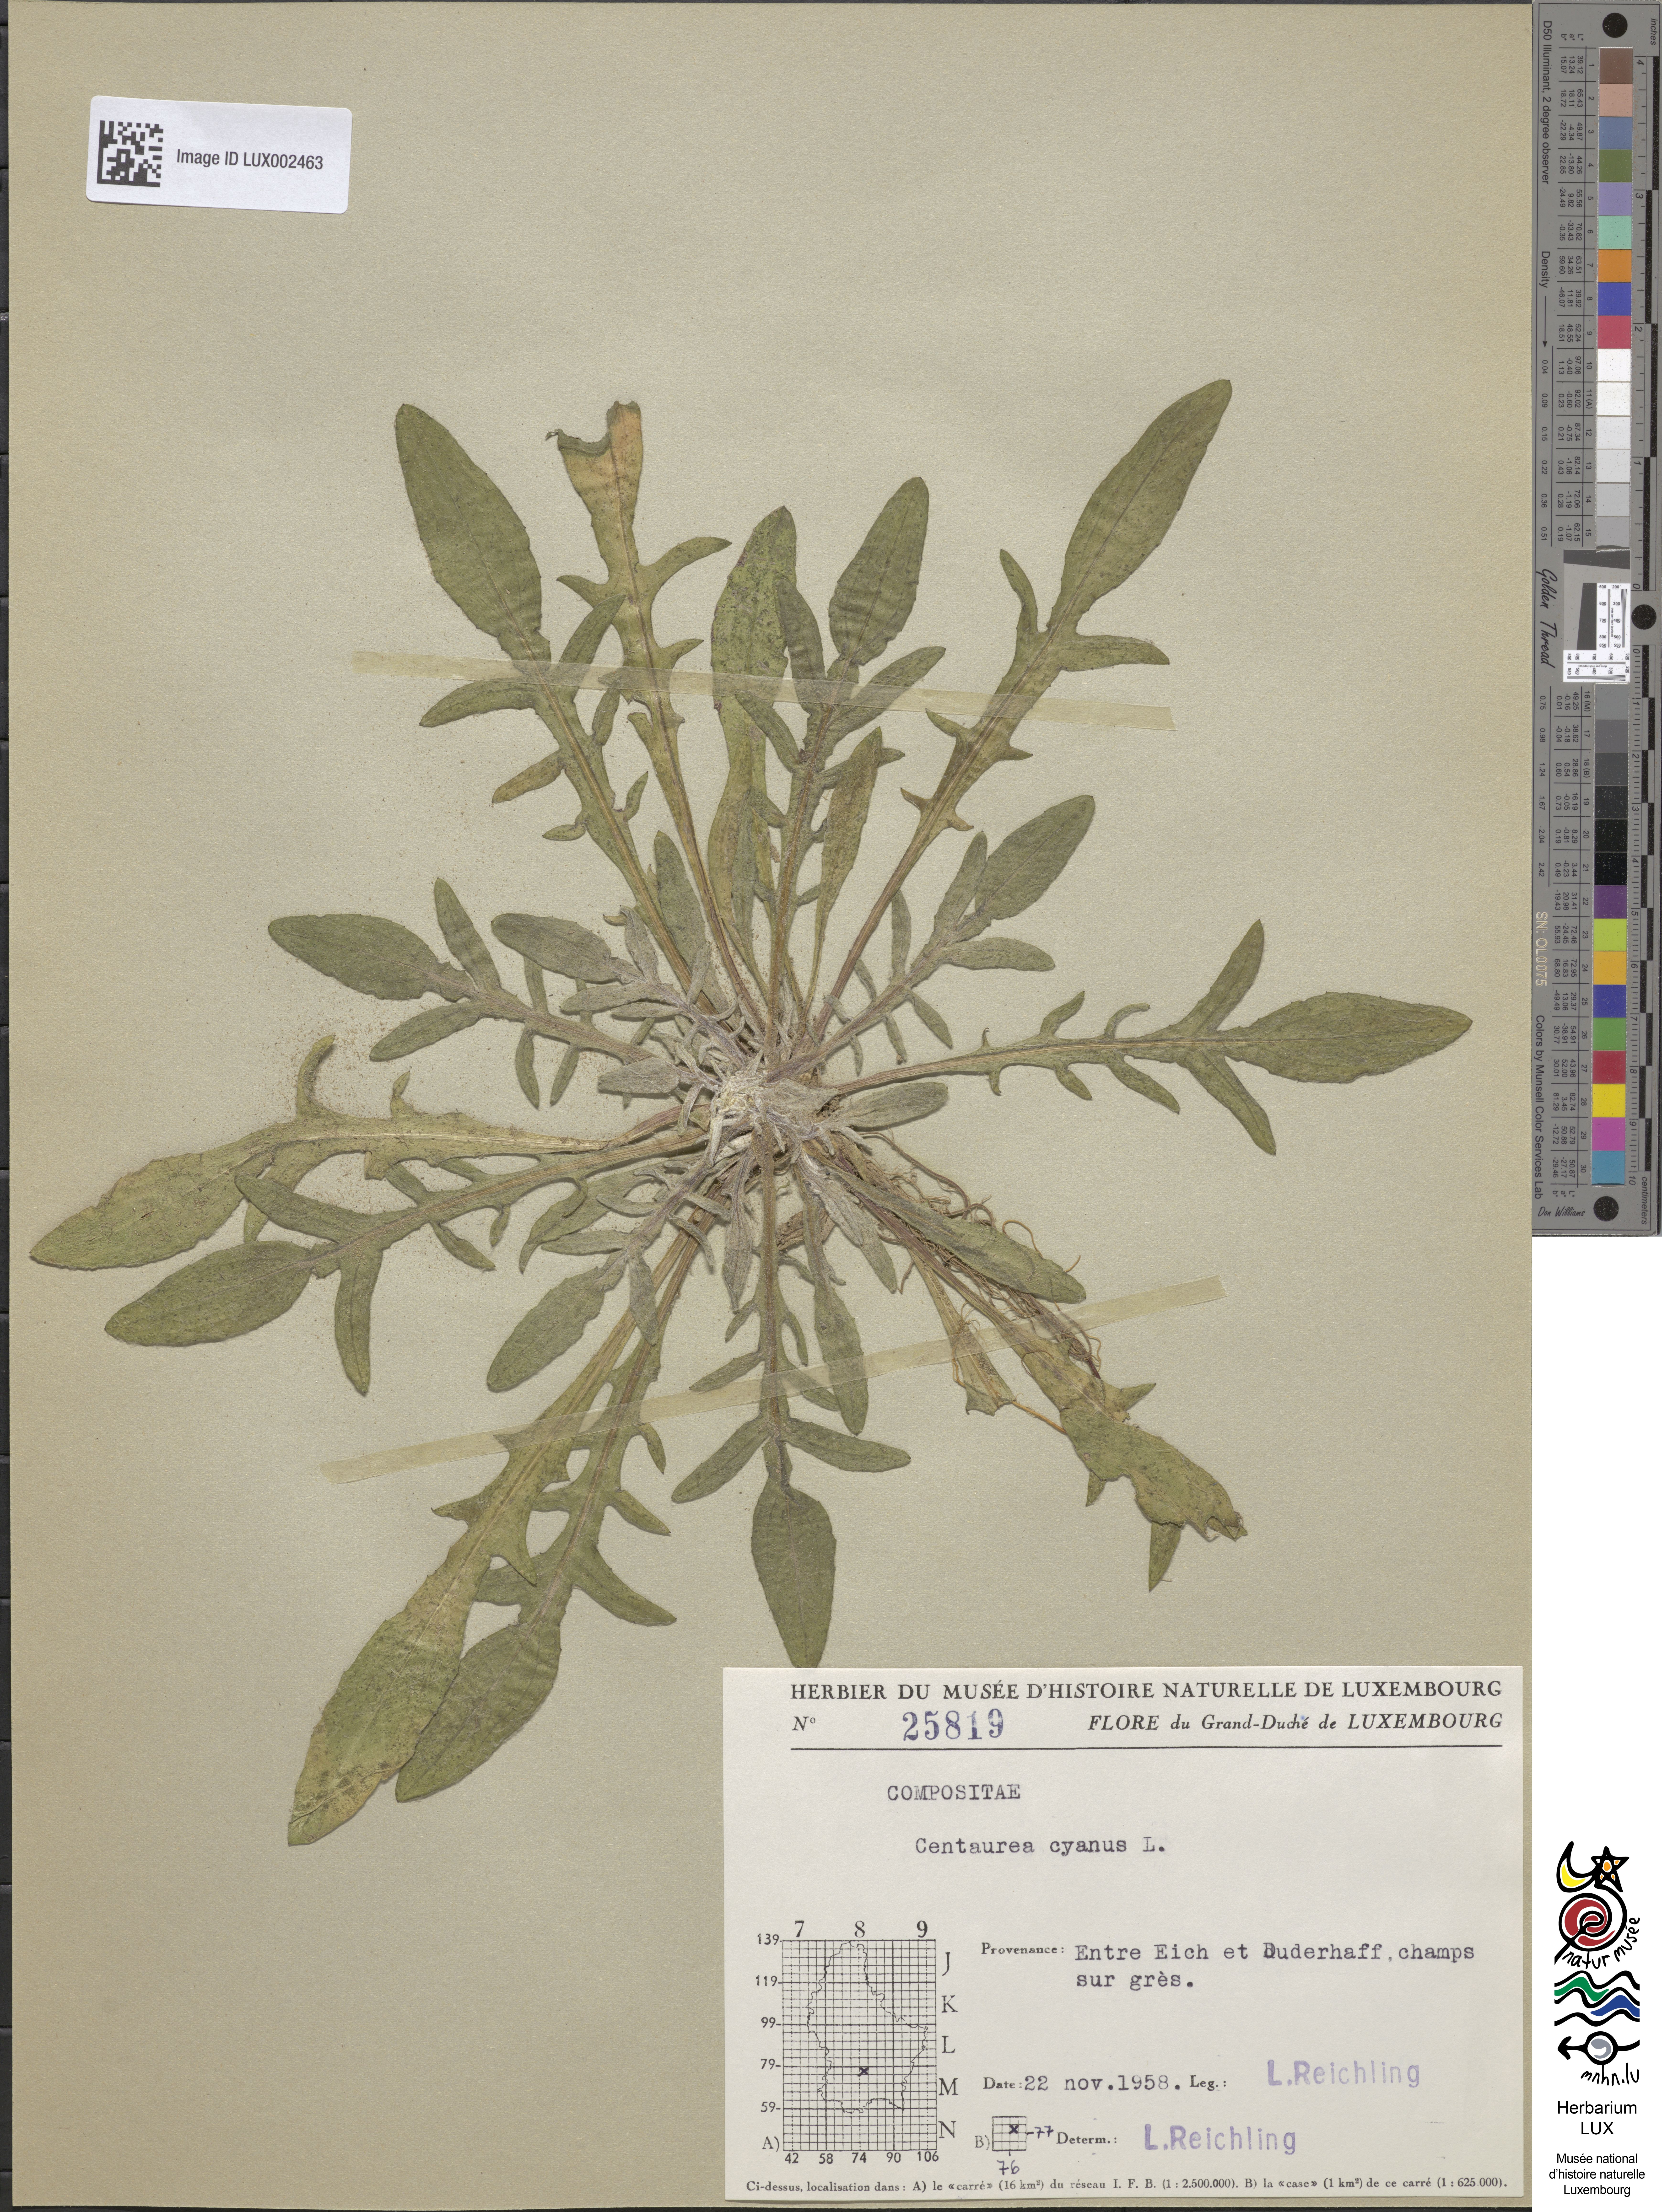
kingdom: Plantae
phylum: Tracheophyta
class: Magnoliopsida
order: Asterales
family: Asteraceae
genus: Centaurea
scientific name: Centaurea cyanus
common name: Cornflower
